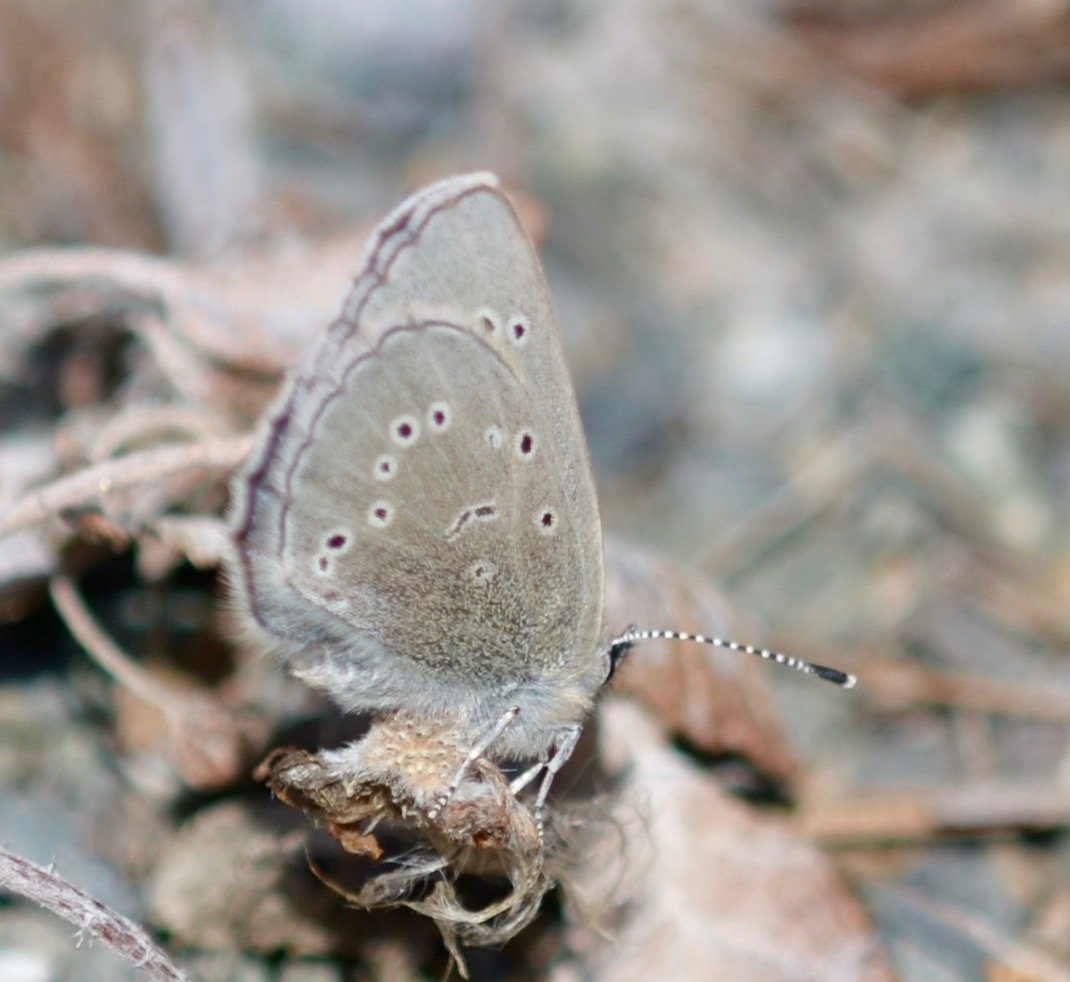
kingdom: Animalia
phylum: Arthropoda
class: Insecta
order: Lepidoptera
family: Lycaenidae
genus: Glaucopsyche
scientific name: Glaucopsyche lygdamus
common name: Silvery Blue
